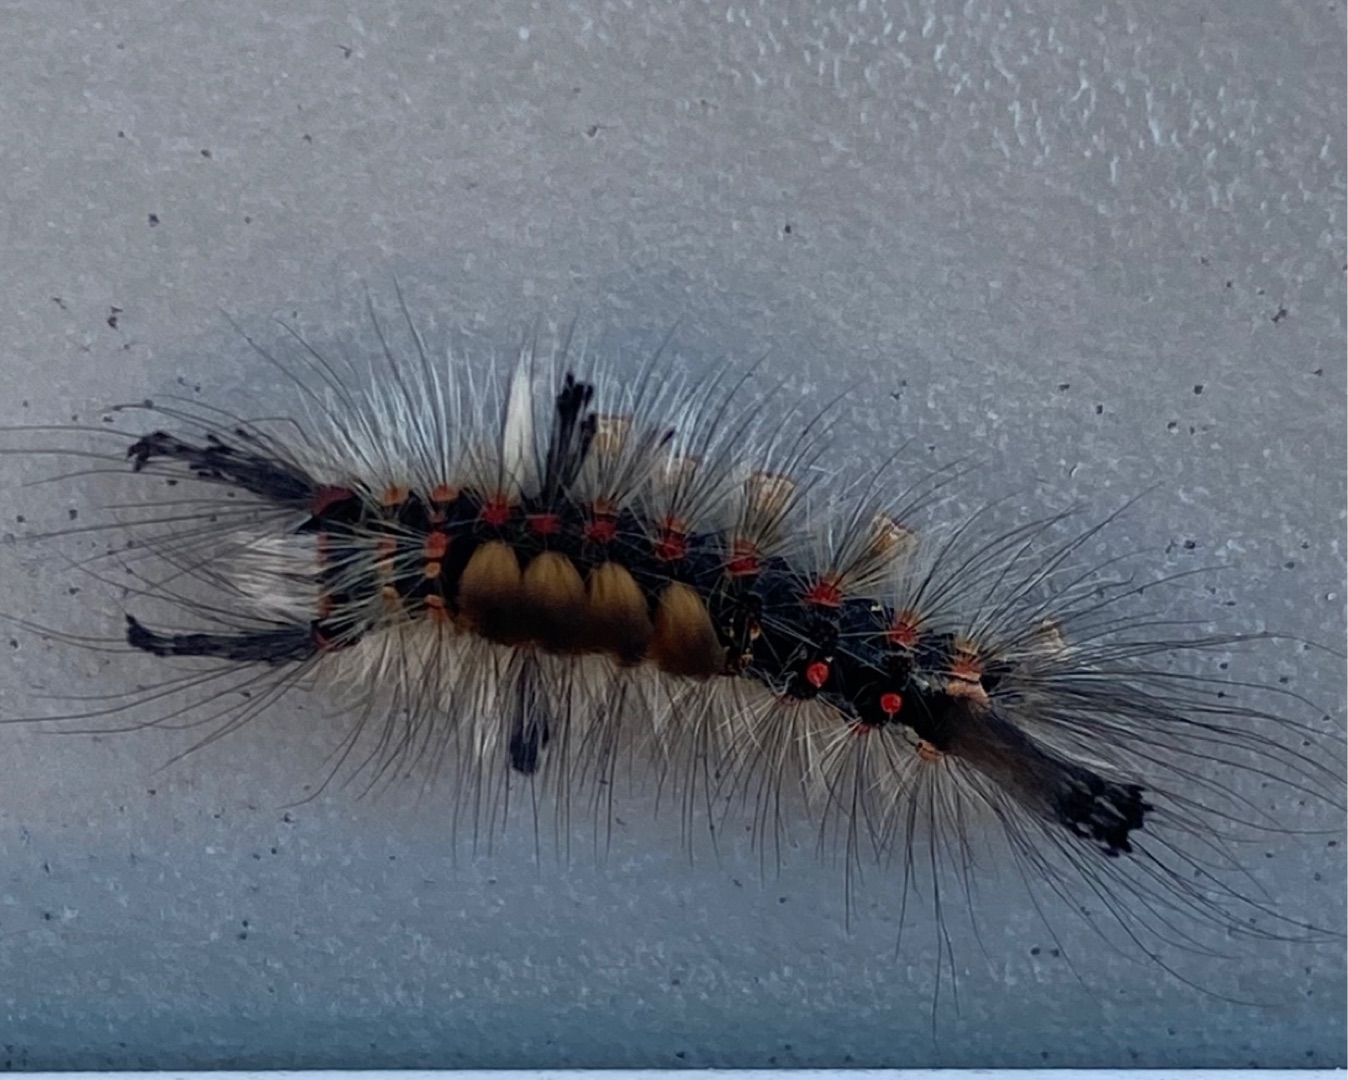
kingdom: Animalia
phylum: Arthropoda
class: Insecta
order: Lepidoptera
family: Erebidae
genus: Orgyia
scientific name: Orgyia antiqua
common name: Lille penselspinder
